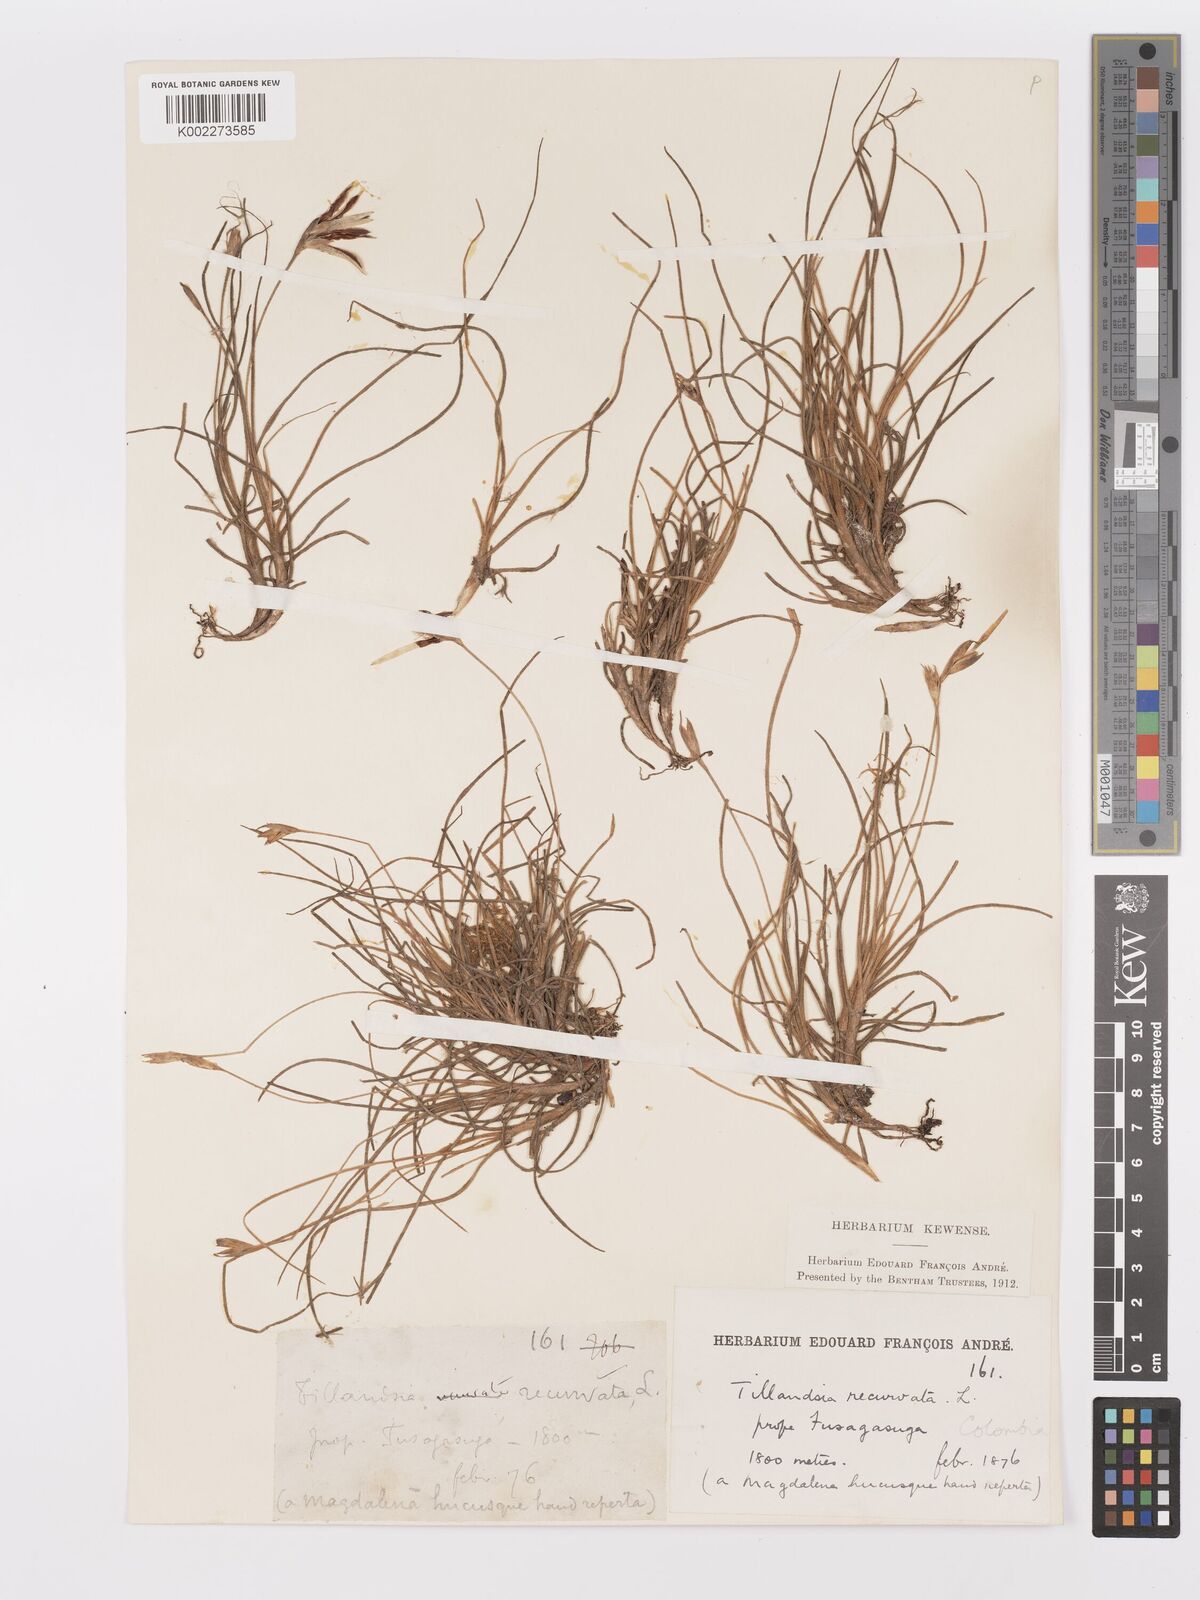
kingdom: Plantae
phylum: Tracheophyta
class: Liliopsida
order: Poales
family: Bromeliaceae
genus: Tillandsia
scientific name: Tillandsia recurvata
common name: Small ballmoss
